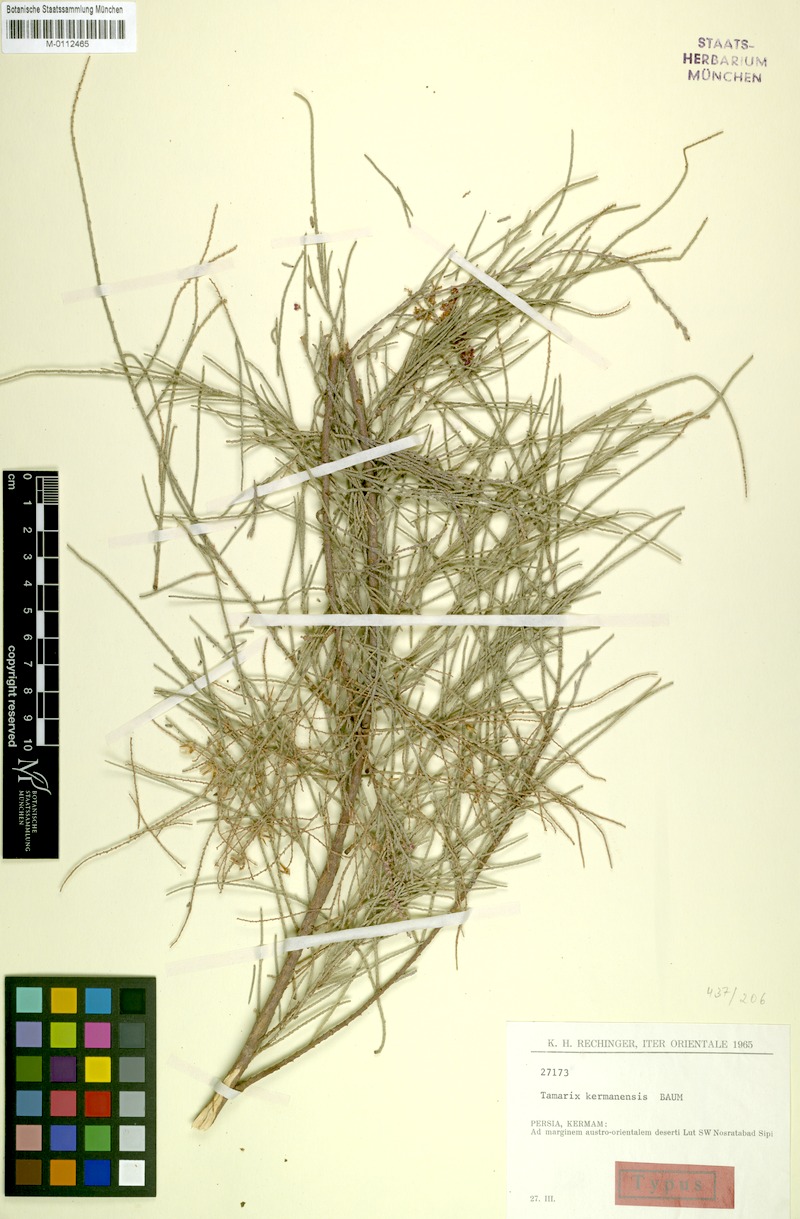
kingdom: Plantae
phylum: Tracheophyta
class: Magnoliopsida
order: Caryophyllales
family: Tamaricaceae
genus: Tamarix
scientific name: Tamarix kermanensis
